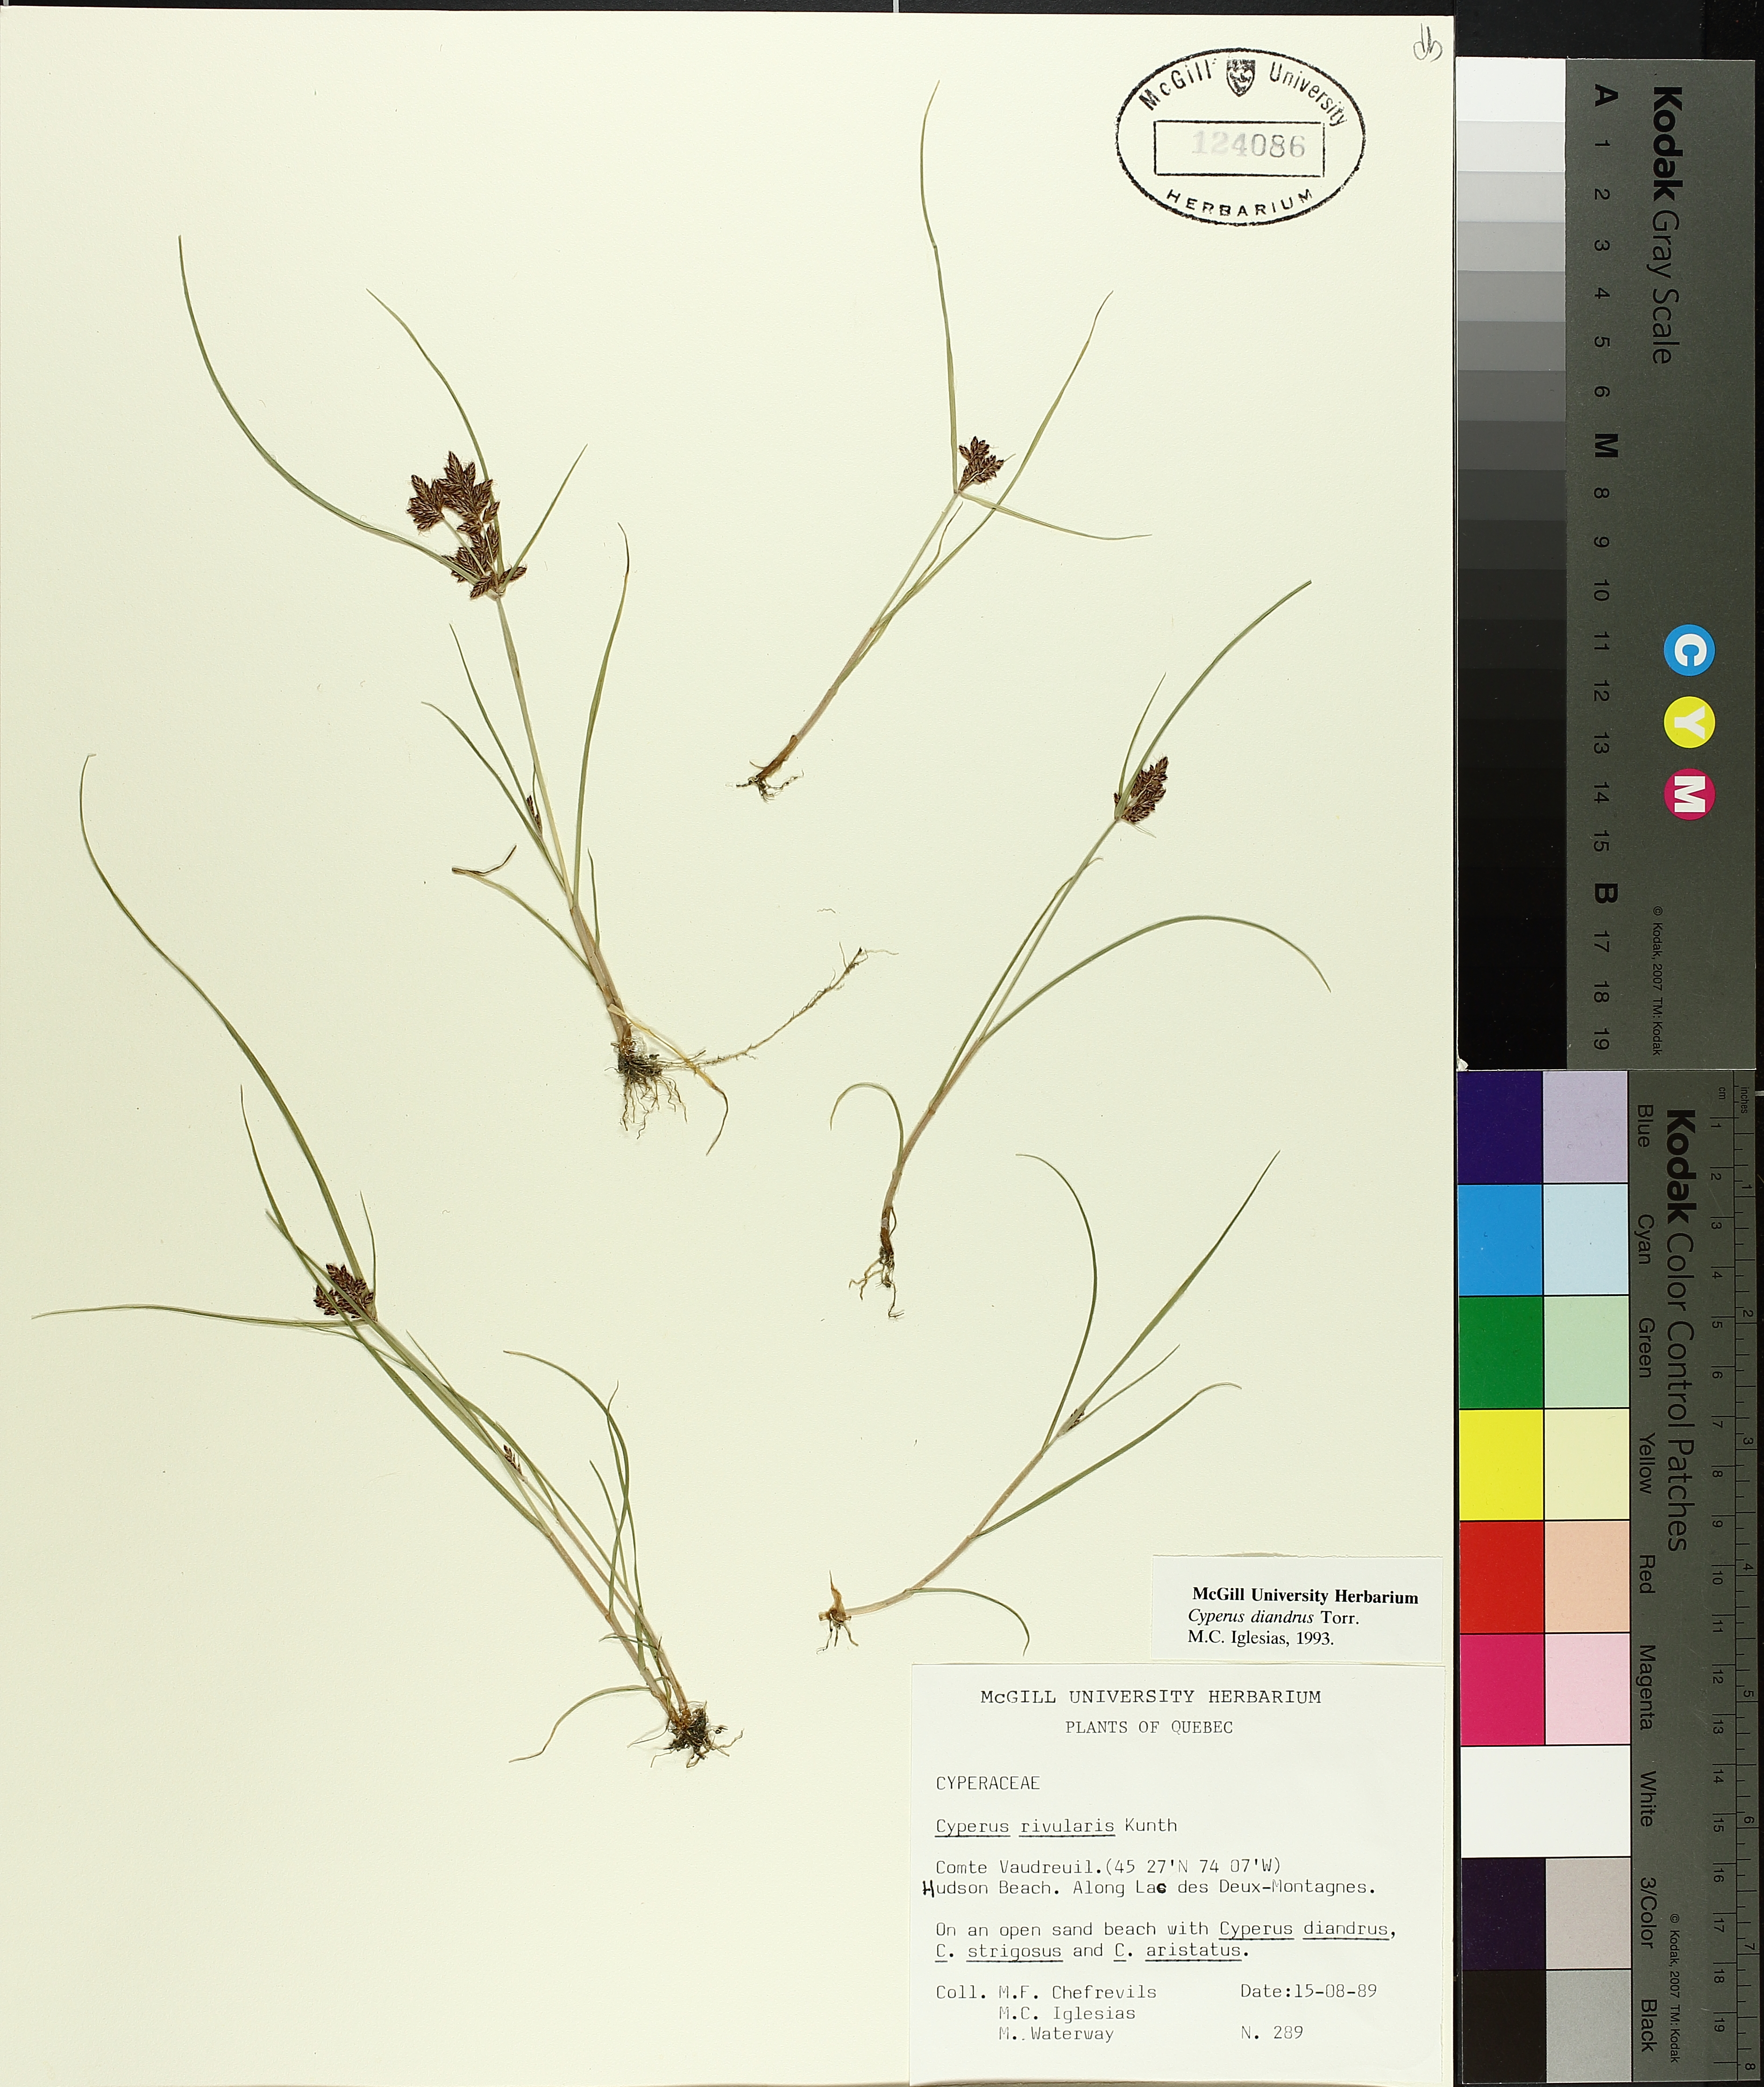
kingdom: Plantae
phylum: Tracheophyta
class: Liliopsida
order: Poales
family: Cyperaceae
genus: Cyperus
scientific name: Cyperus diandrus
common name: Low cyperus
